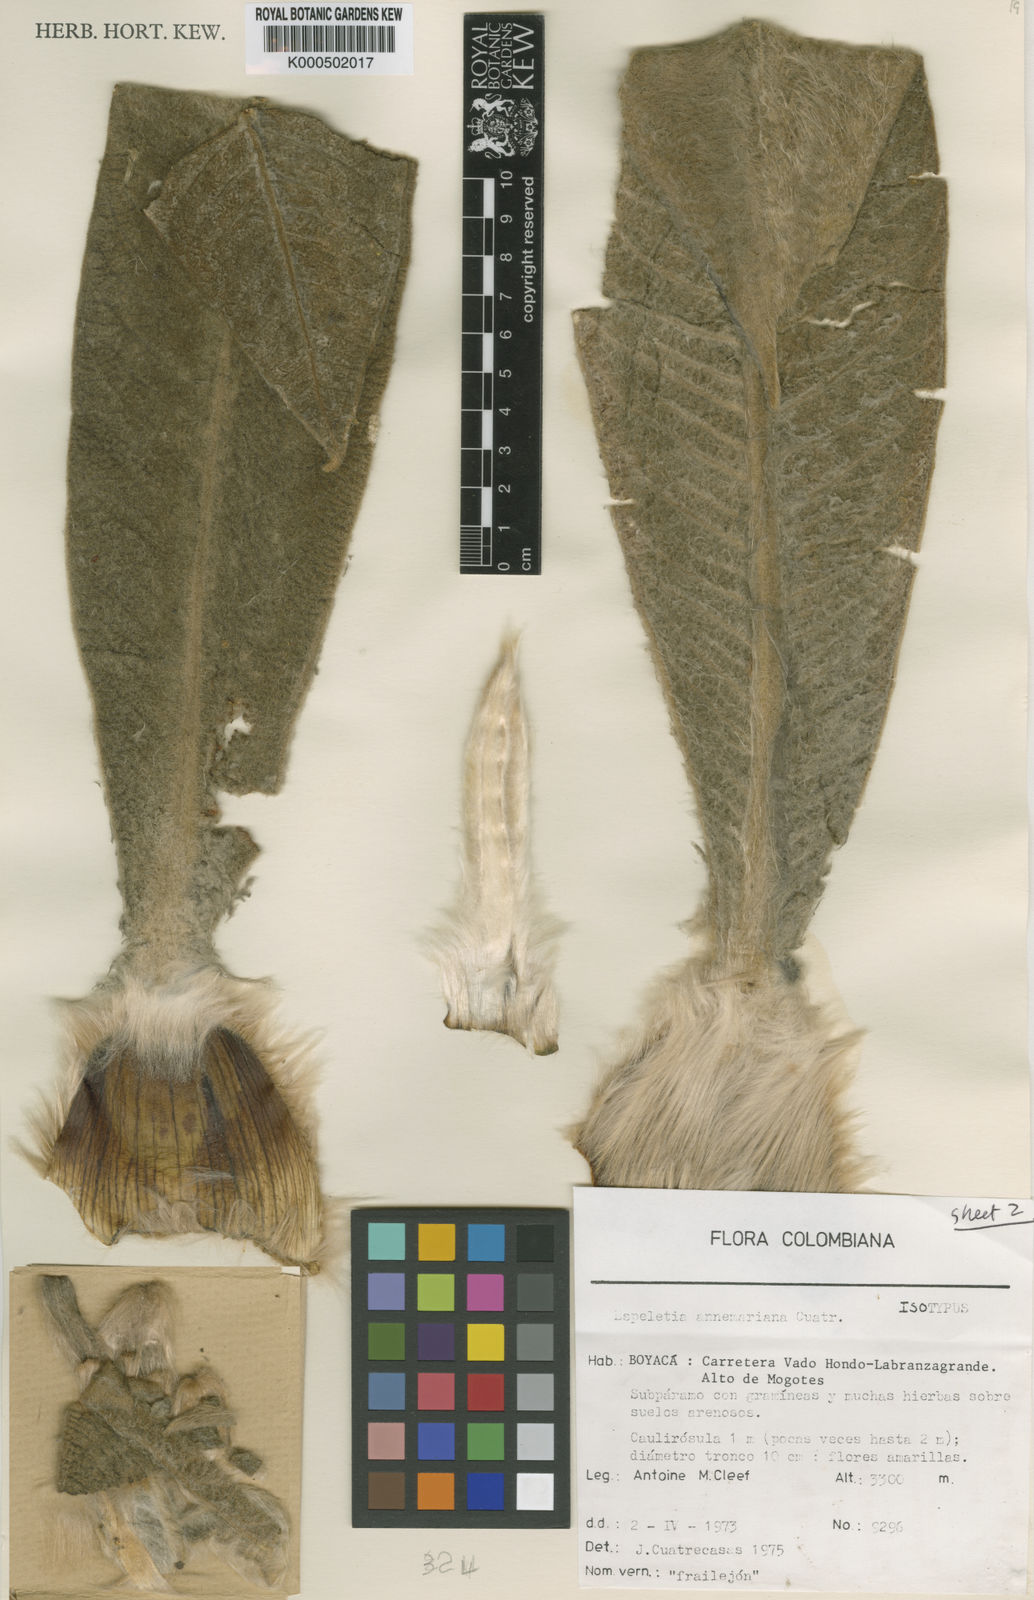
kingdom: Plantae
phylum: Tracheophyta
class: Magnoliopsida
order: Asterales
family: Asteraceae
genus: Espeletia
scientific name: Espeletia annemariana
